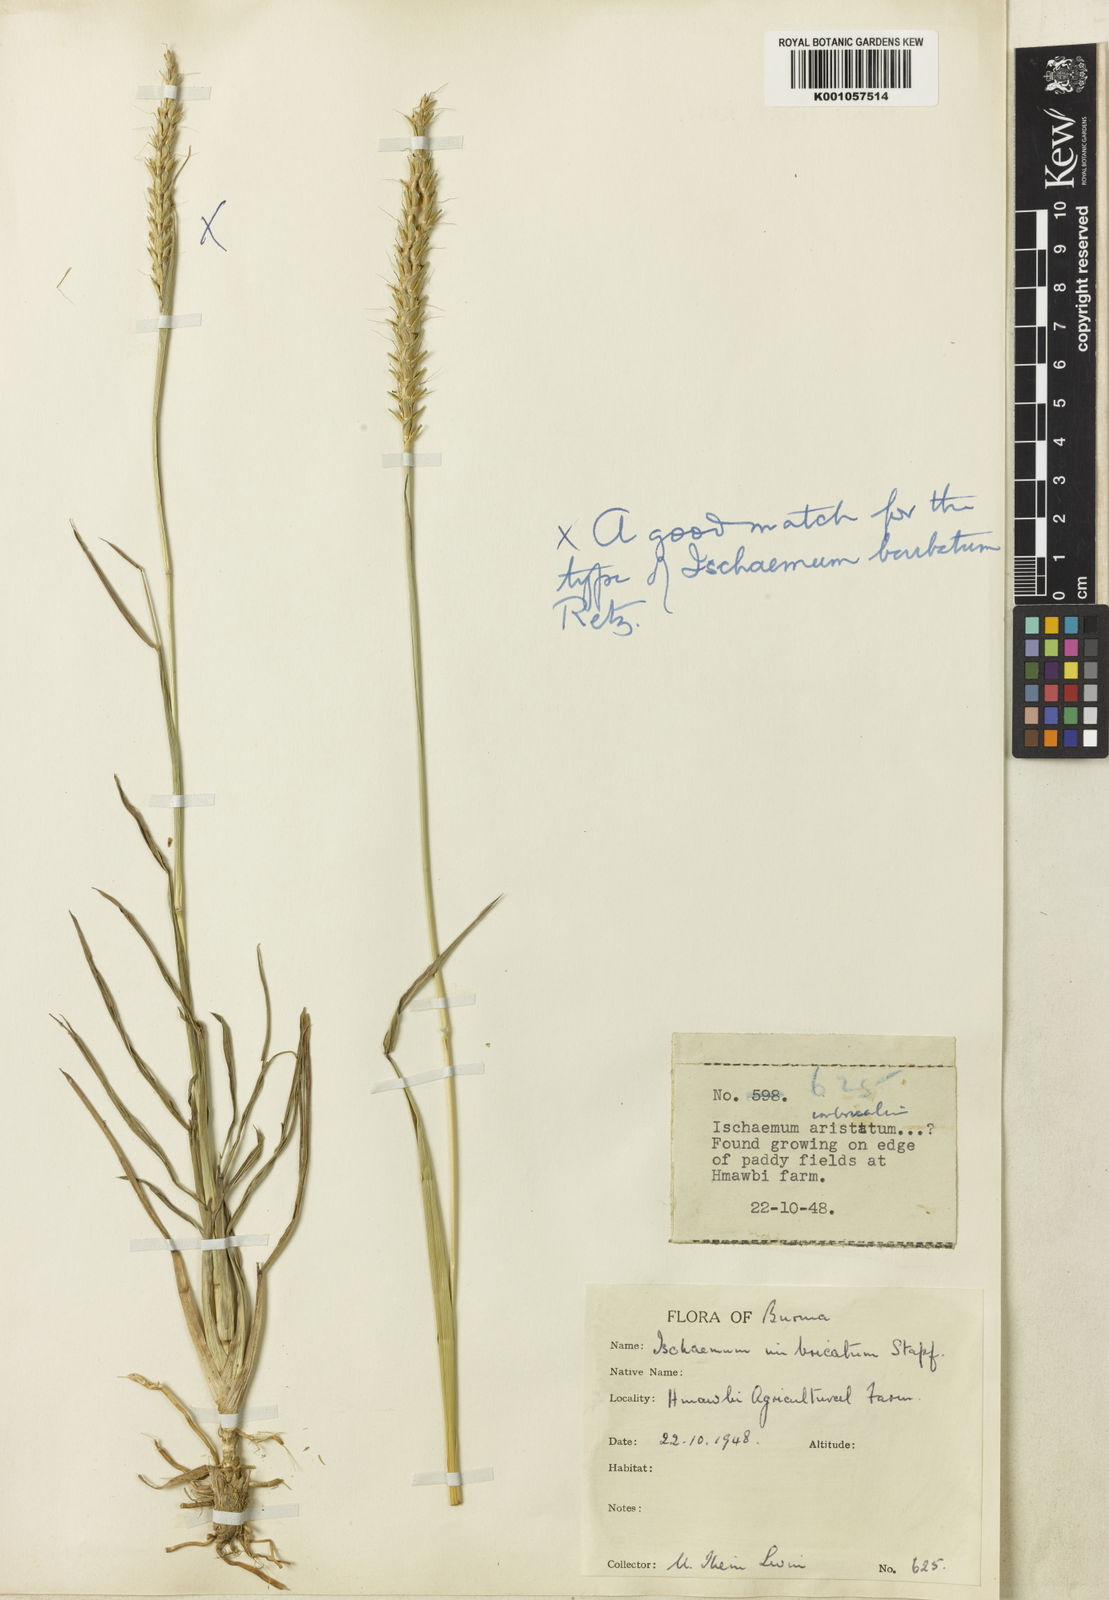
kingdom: Plantae
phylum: Tracheophyta
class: Liliopsida
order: Poales
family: Poaceae
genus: Ischaemum
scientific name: Ischaemum barbatum
